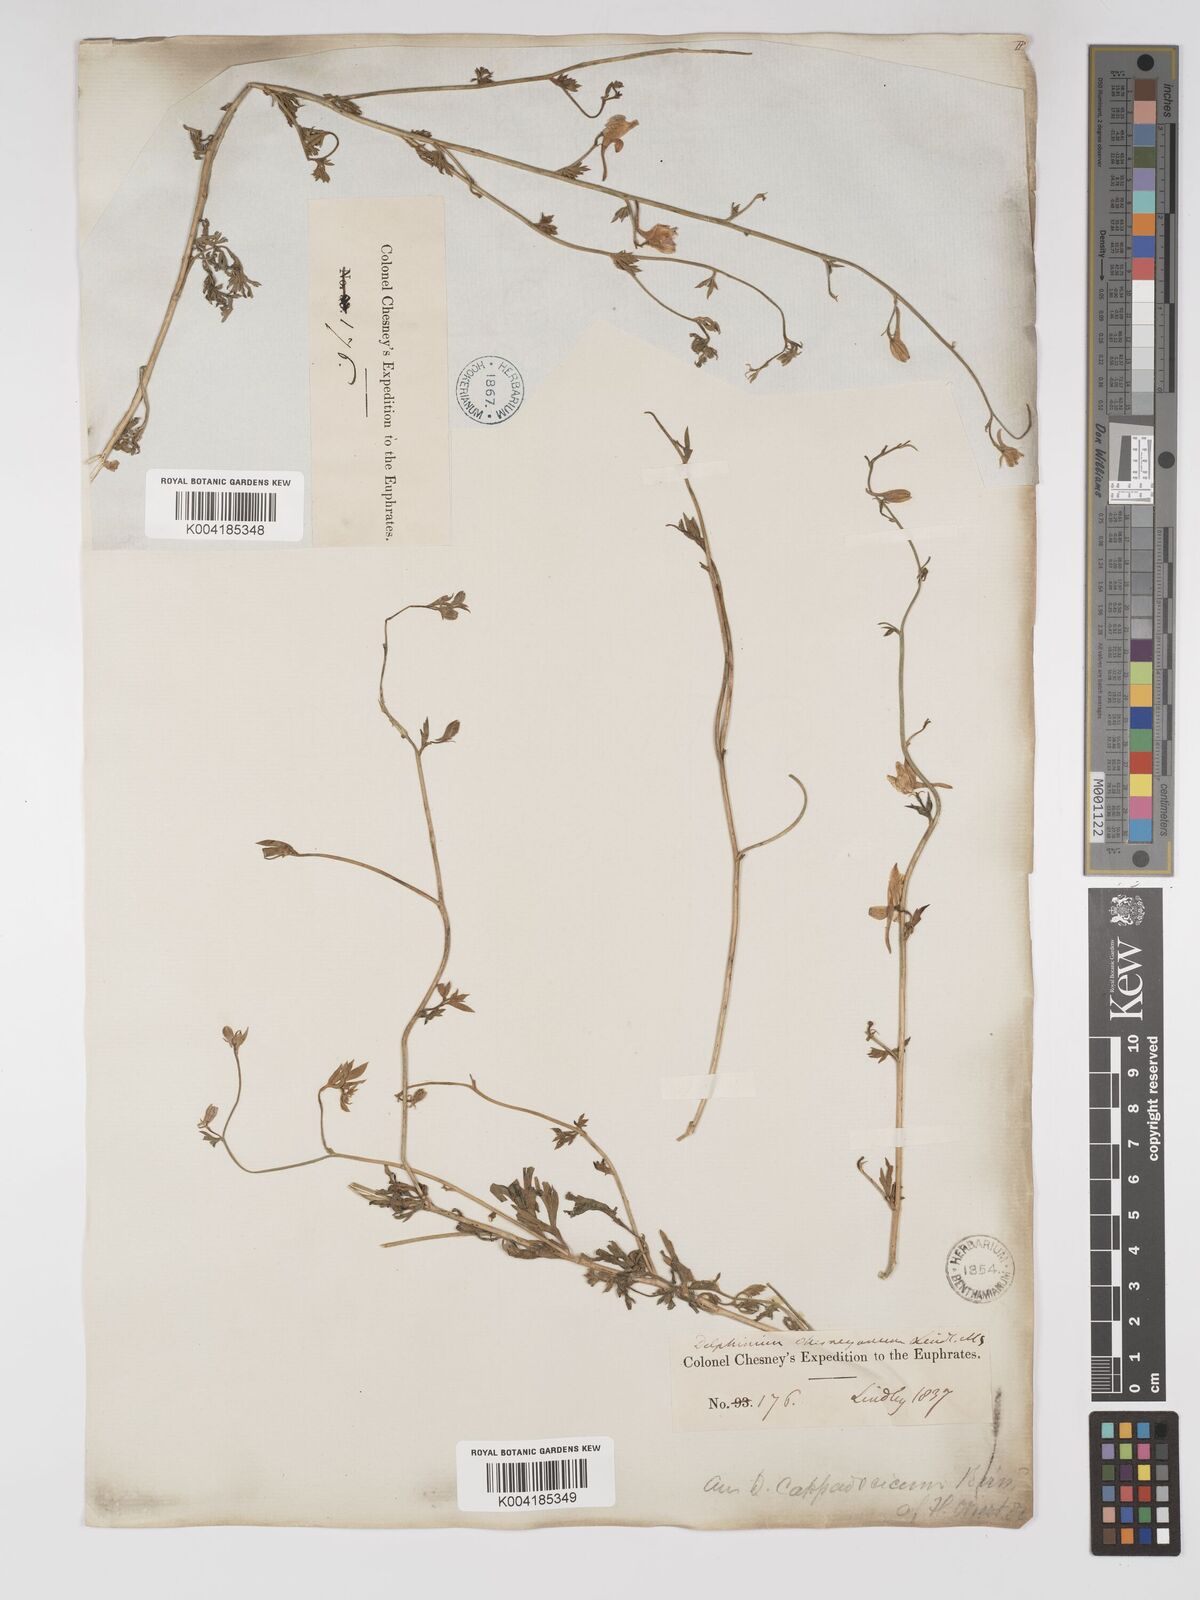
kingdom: Plantae
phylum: Tracheophyta
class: Magnoliopsida
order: Ranunculales
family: Ranunculaceae
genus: Delphinium
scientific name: Delphinium oliverianum
